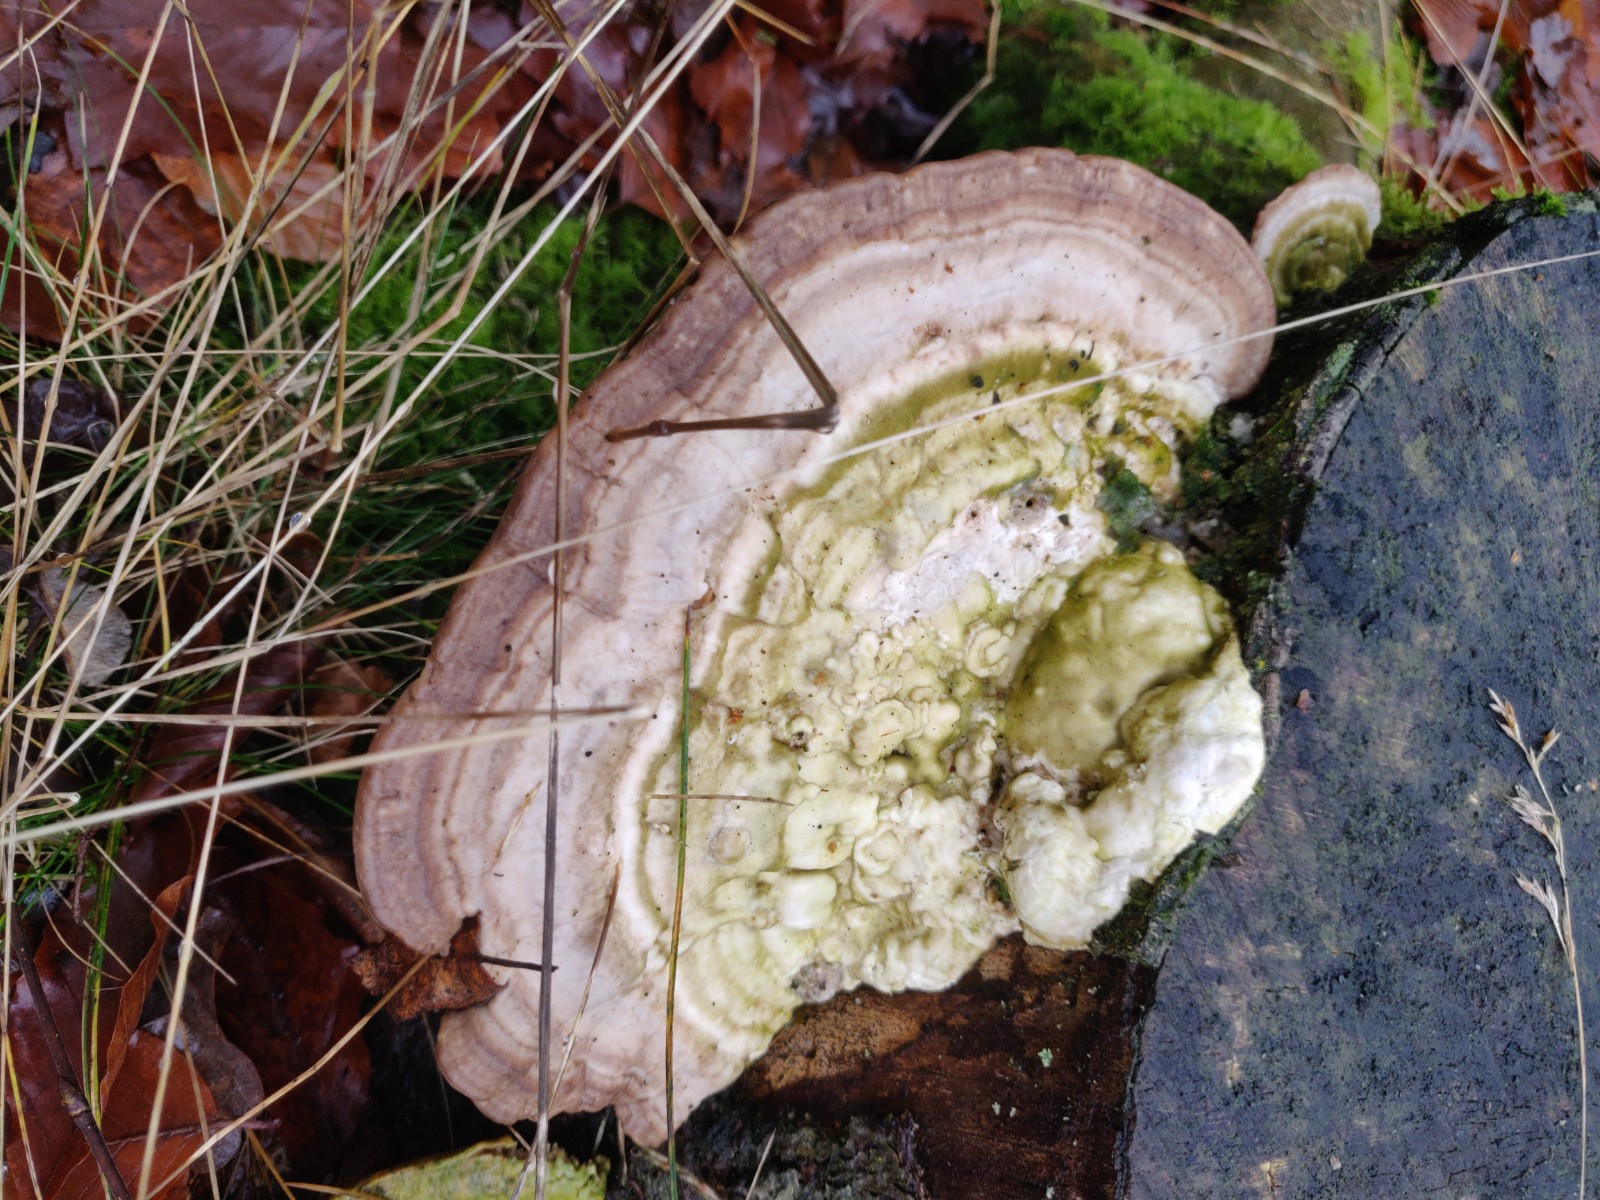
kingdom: Fungi
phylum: Basidiomycota
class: Agaricomycetes
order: Polyporales
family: Polyporaceae
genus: Trametes
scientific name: Trametes gibbosa
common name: puklet læderporesvamp
